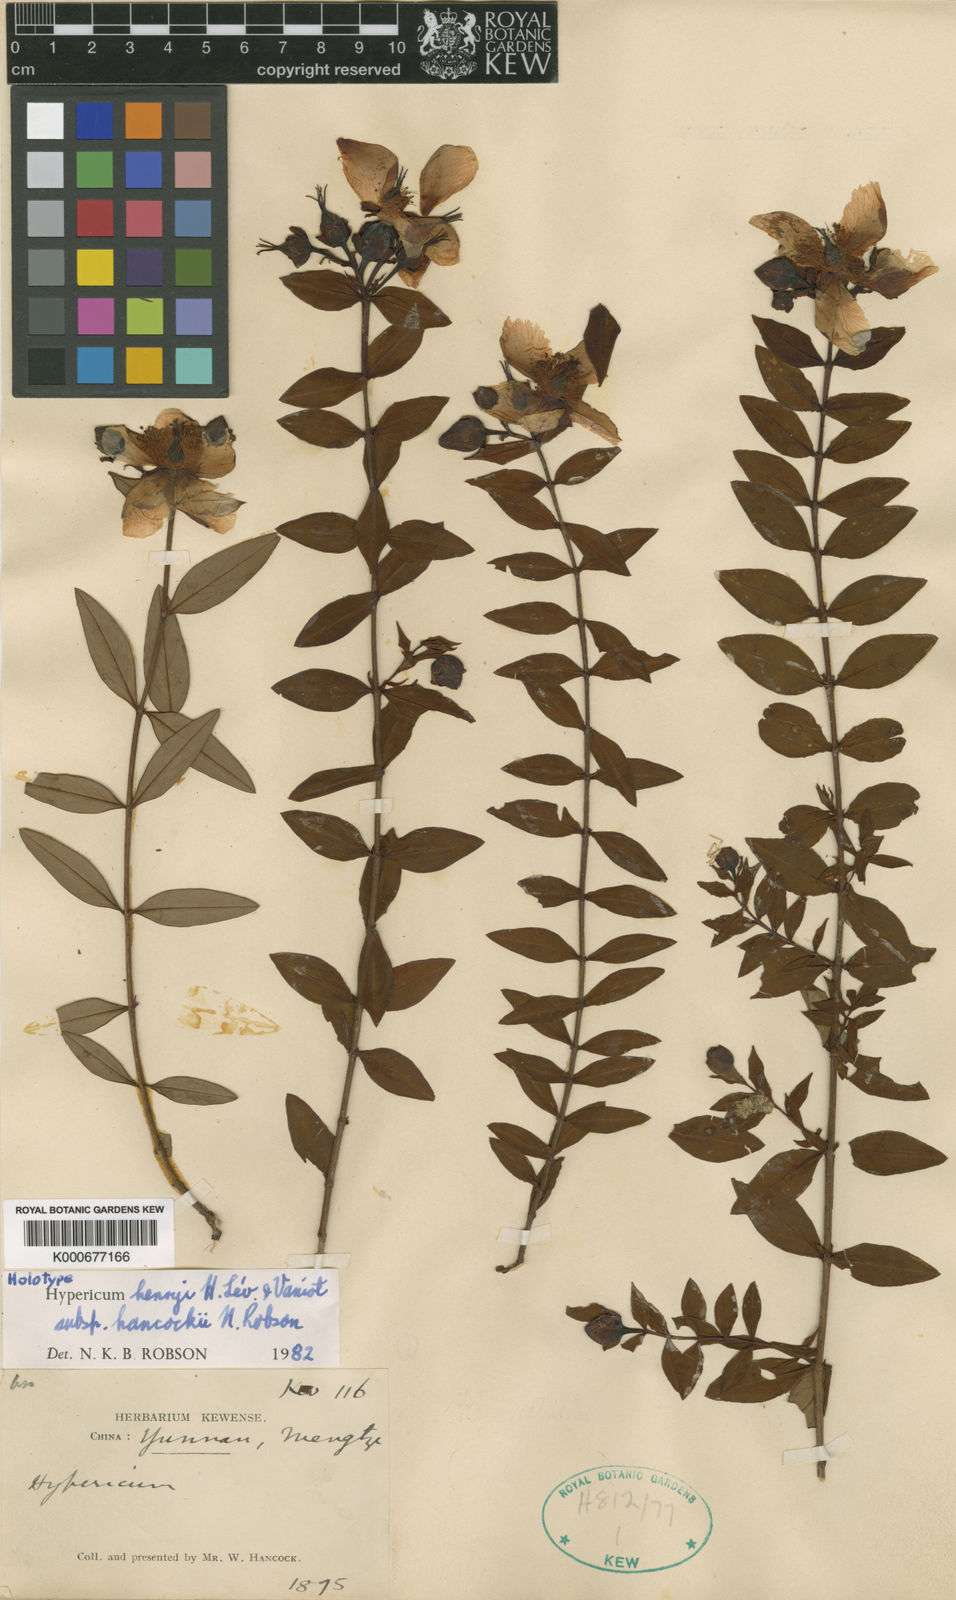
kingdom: Plantae
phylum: Tracheophyta
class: Magnoliopsida
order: Malpighiales
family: Hypericaceae
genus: Hypericum
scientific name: Hypericum
